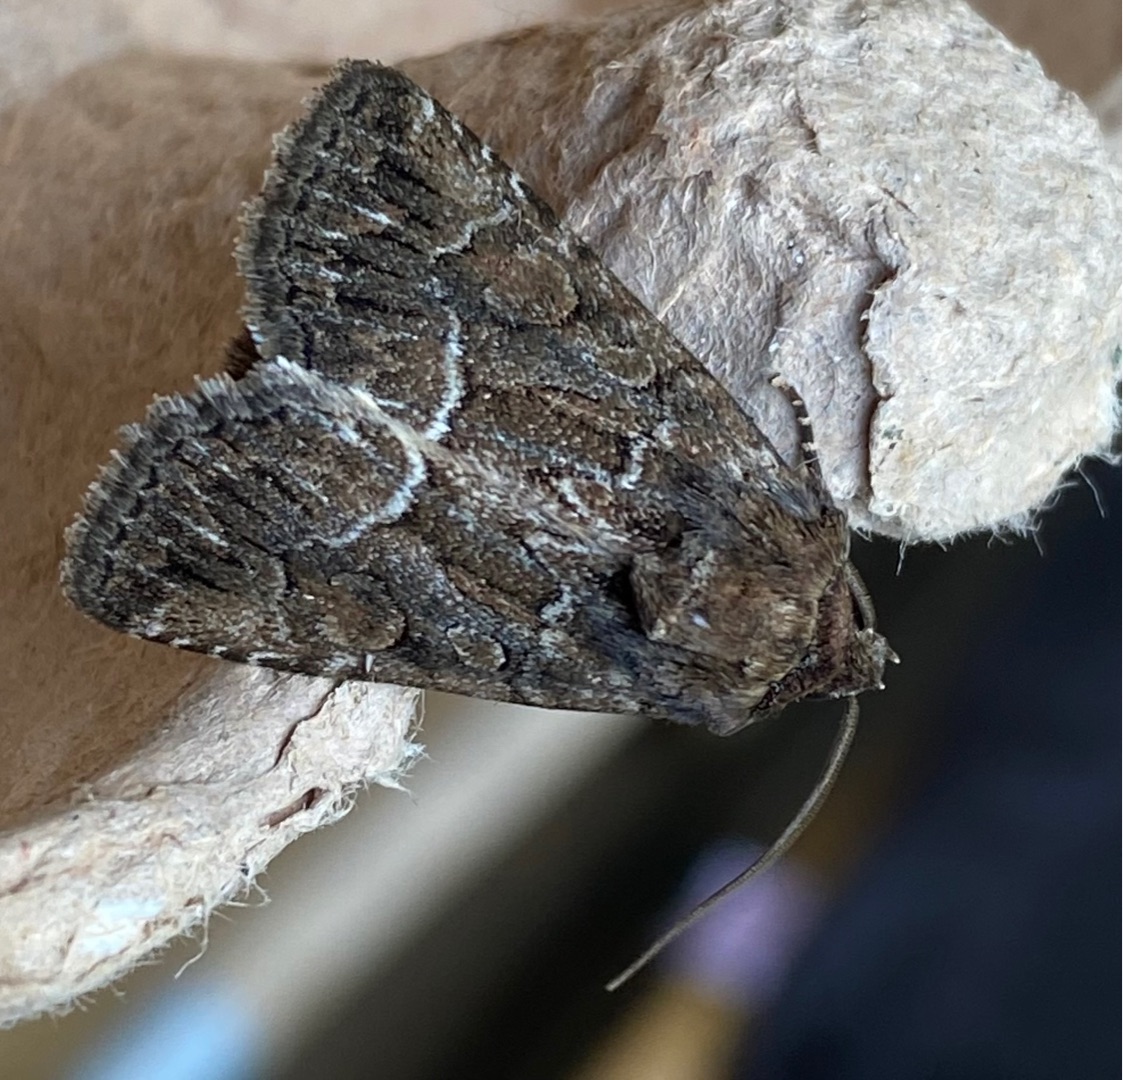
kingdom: Animalia
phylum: Arthropoda
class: Insecta
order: Lepidoptera
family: Noctuidae
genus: Thalpophila
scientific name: Thalpophila matura
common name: Gulvinget ugle
